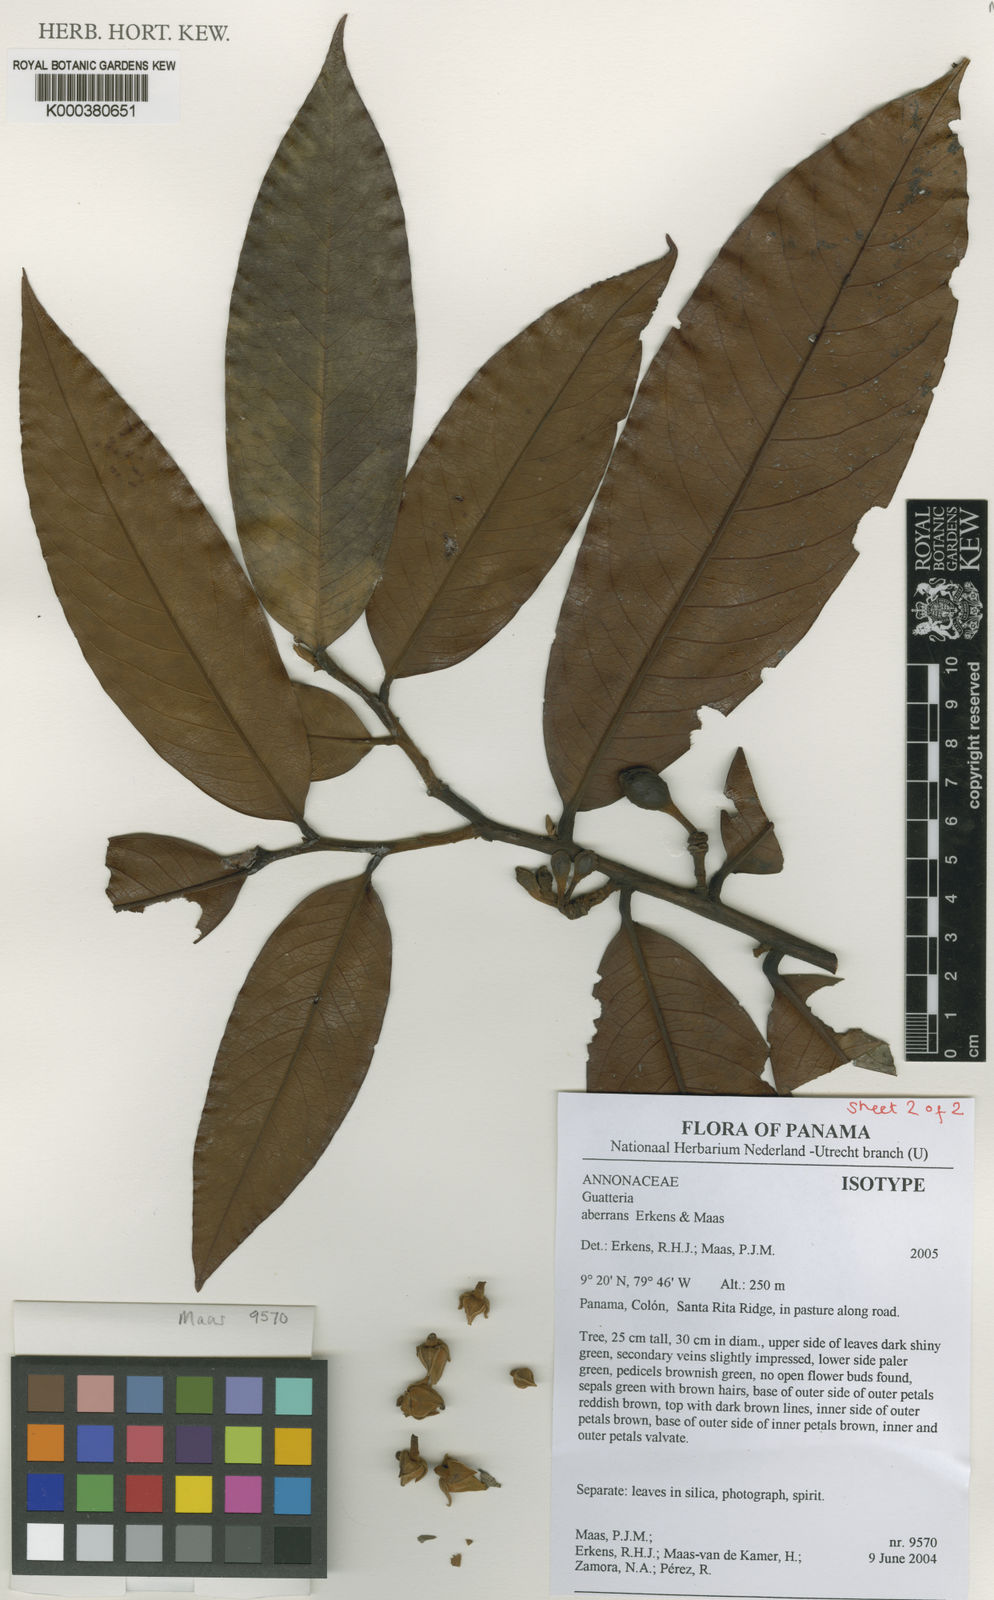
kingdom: Plantae
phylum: Tracheophyta
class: Magnoliopsida
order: Magnoliales
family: Annonaceae
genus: Guatteria
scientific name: Guatteria aberrans
